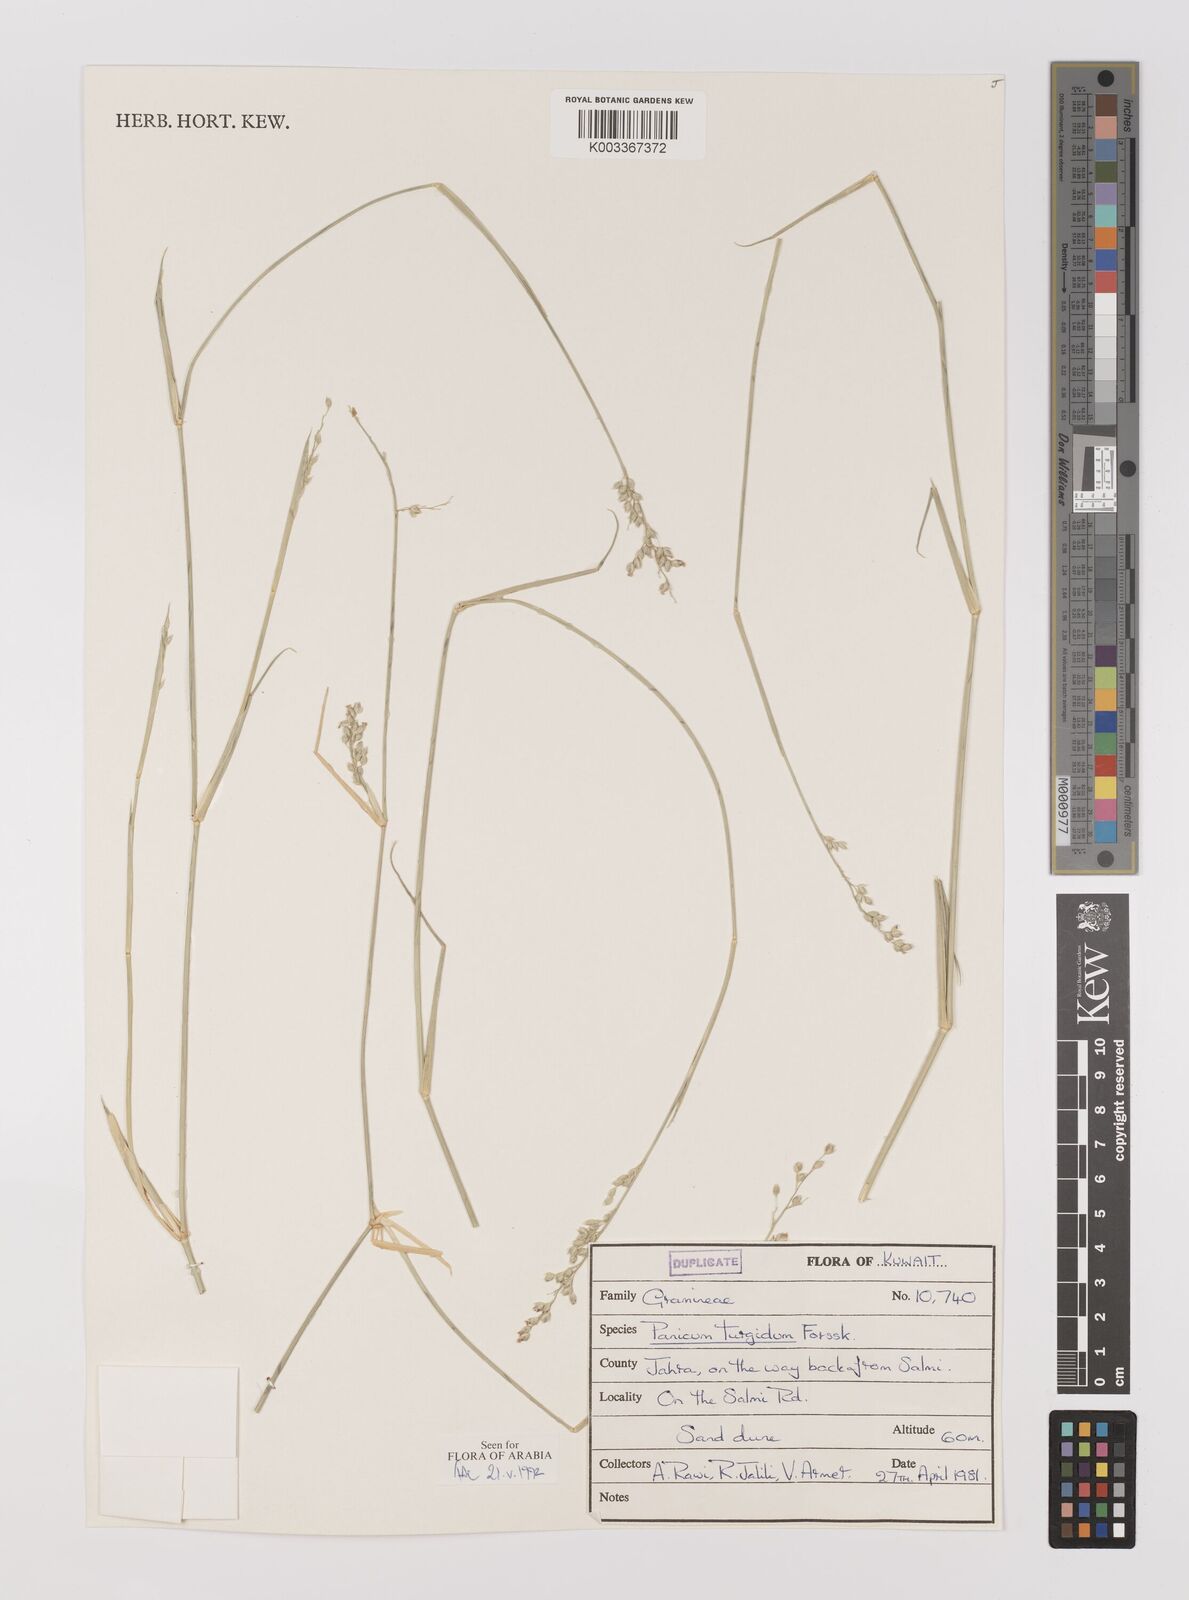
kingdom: Plantae
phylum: Tracheophyta
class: Liliopsida
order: Poales
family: Poaceae
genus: Panicum
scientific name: Panicum turgidum
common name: Desert grass
